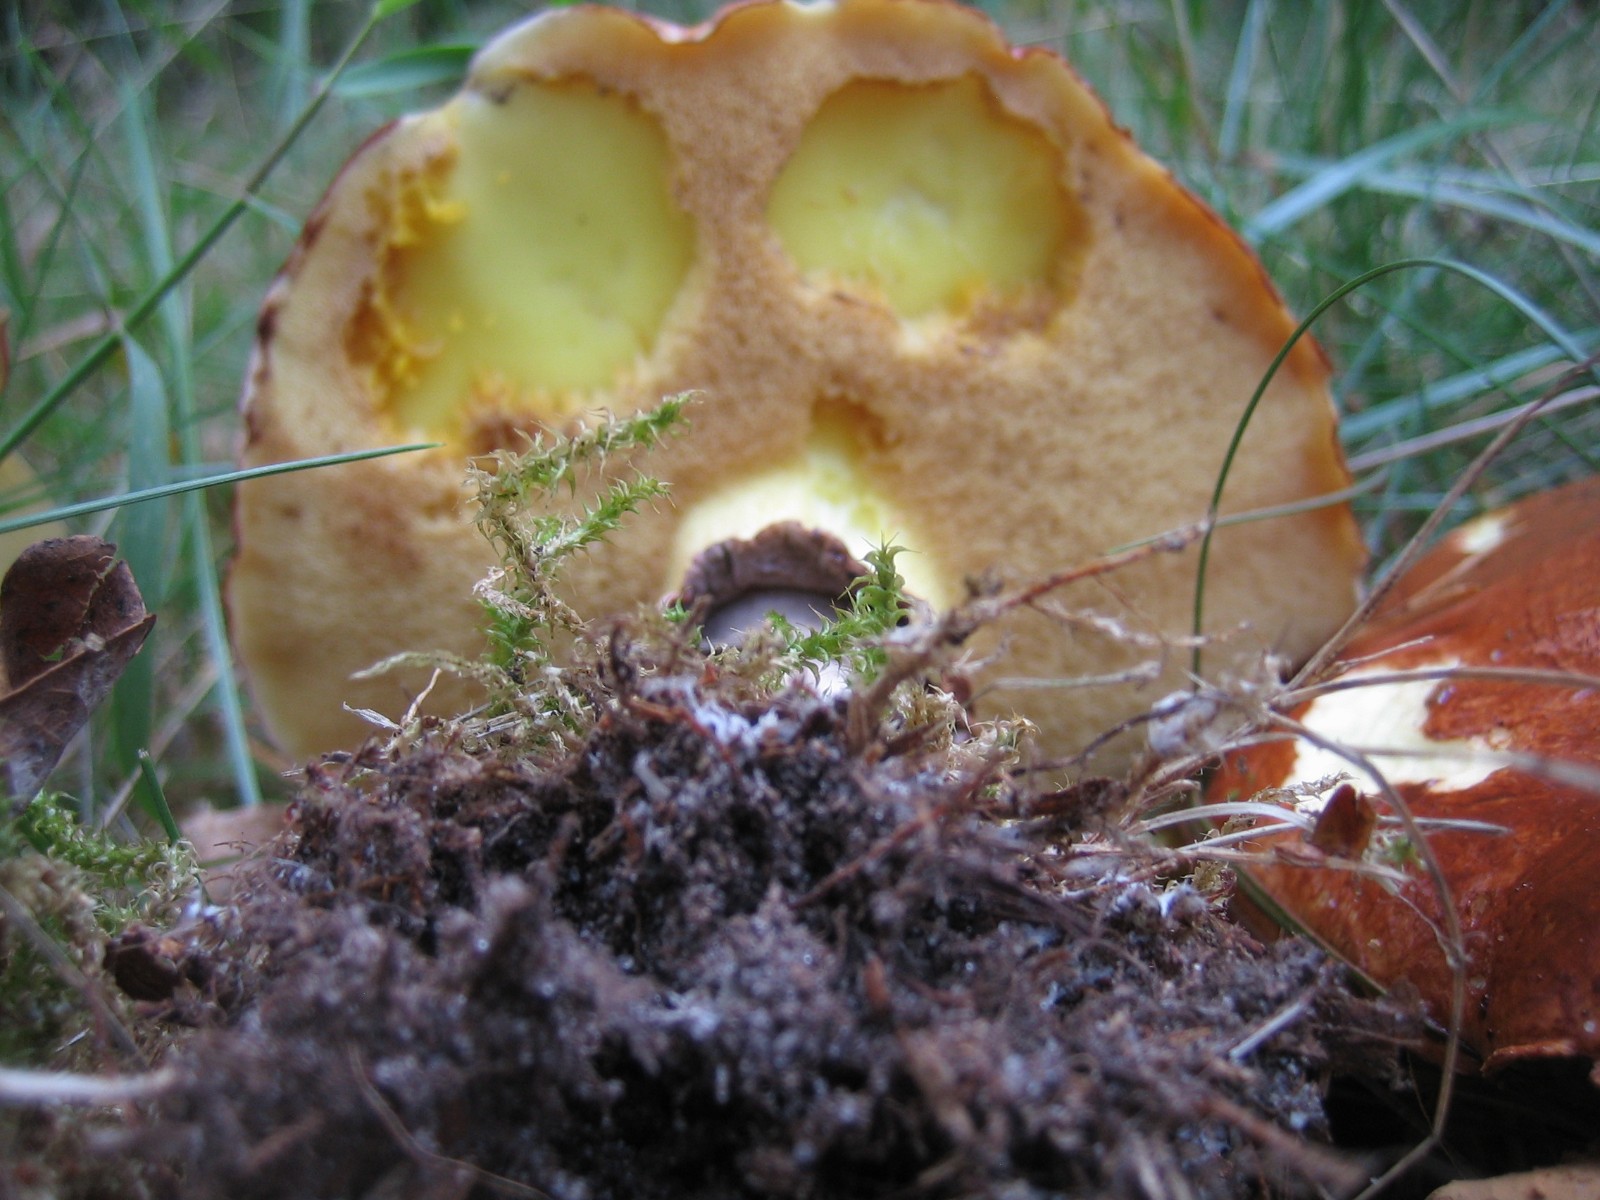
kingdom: Fungi
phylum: Basidiomycota
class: Agaricomycetes
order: Boletales
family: Suillaceae
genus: Suillus
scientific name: Suillus luteus
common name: brungul slimrørhat
